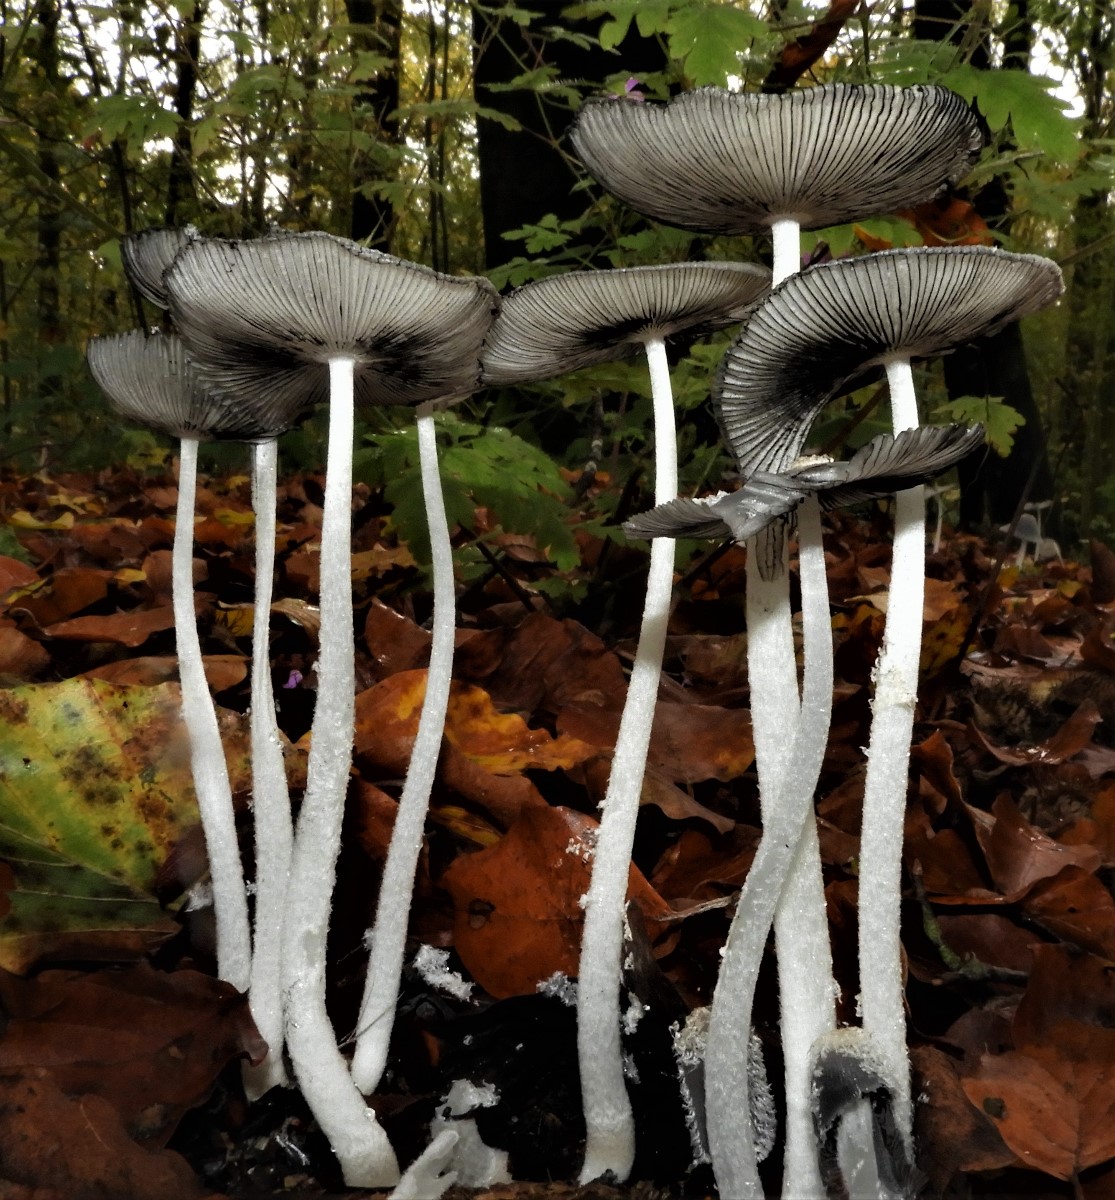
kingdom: Fungi
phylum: Basidiomycota
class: Agaricomycetes
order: Agaricales
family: Psathyrellaceae
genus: Coprinopsis
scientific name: Coprinopsis lagopus
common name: dunstokket blækhat
